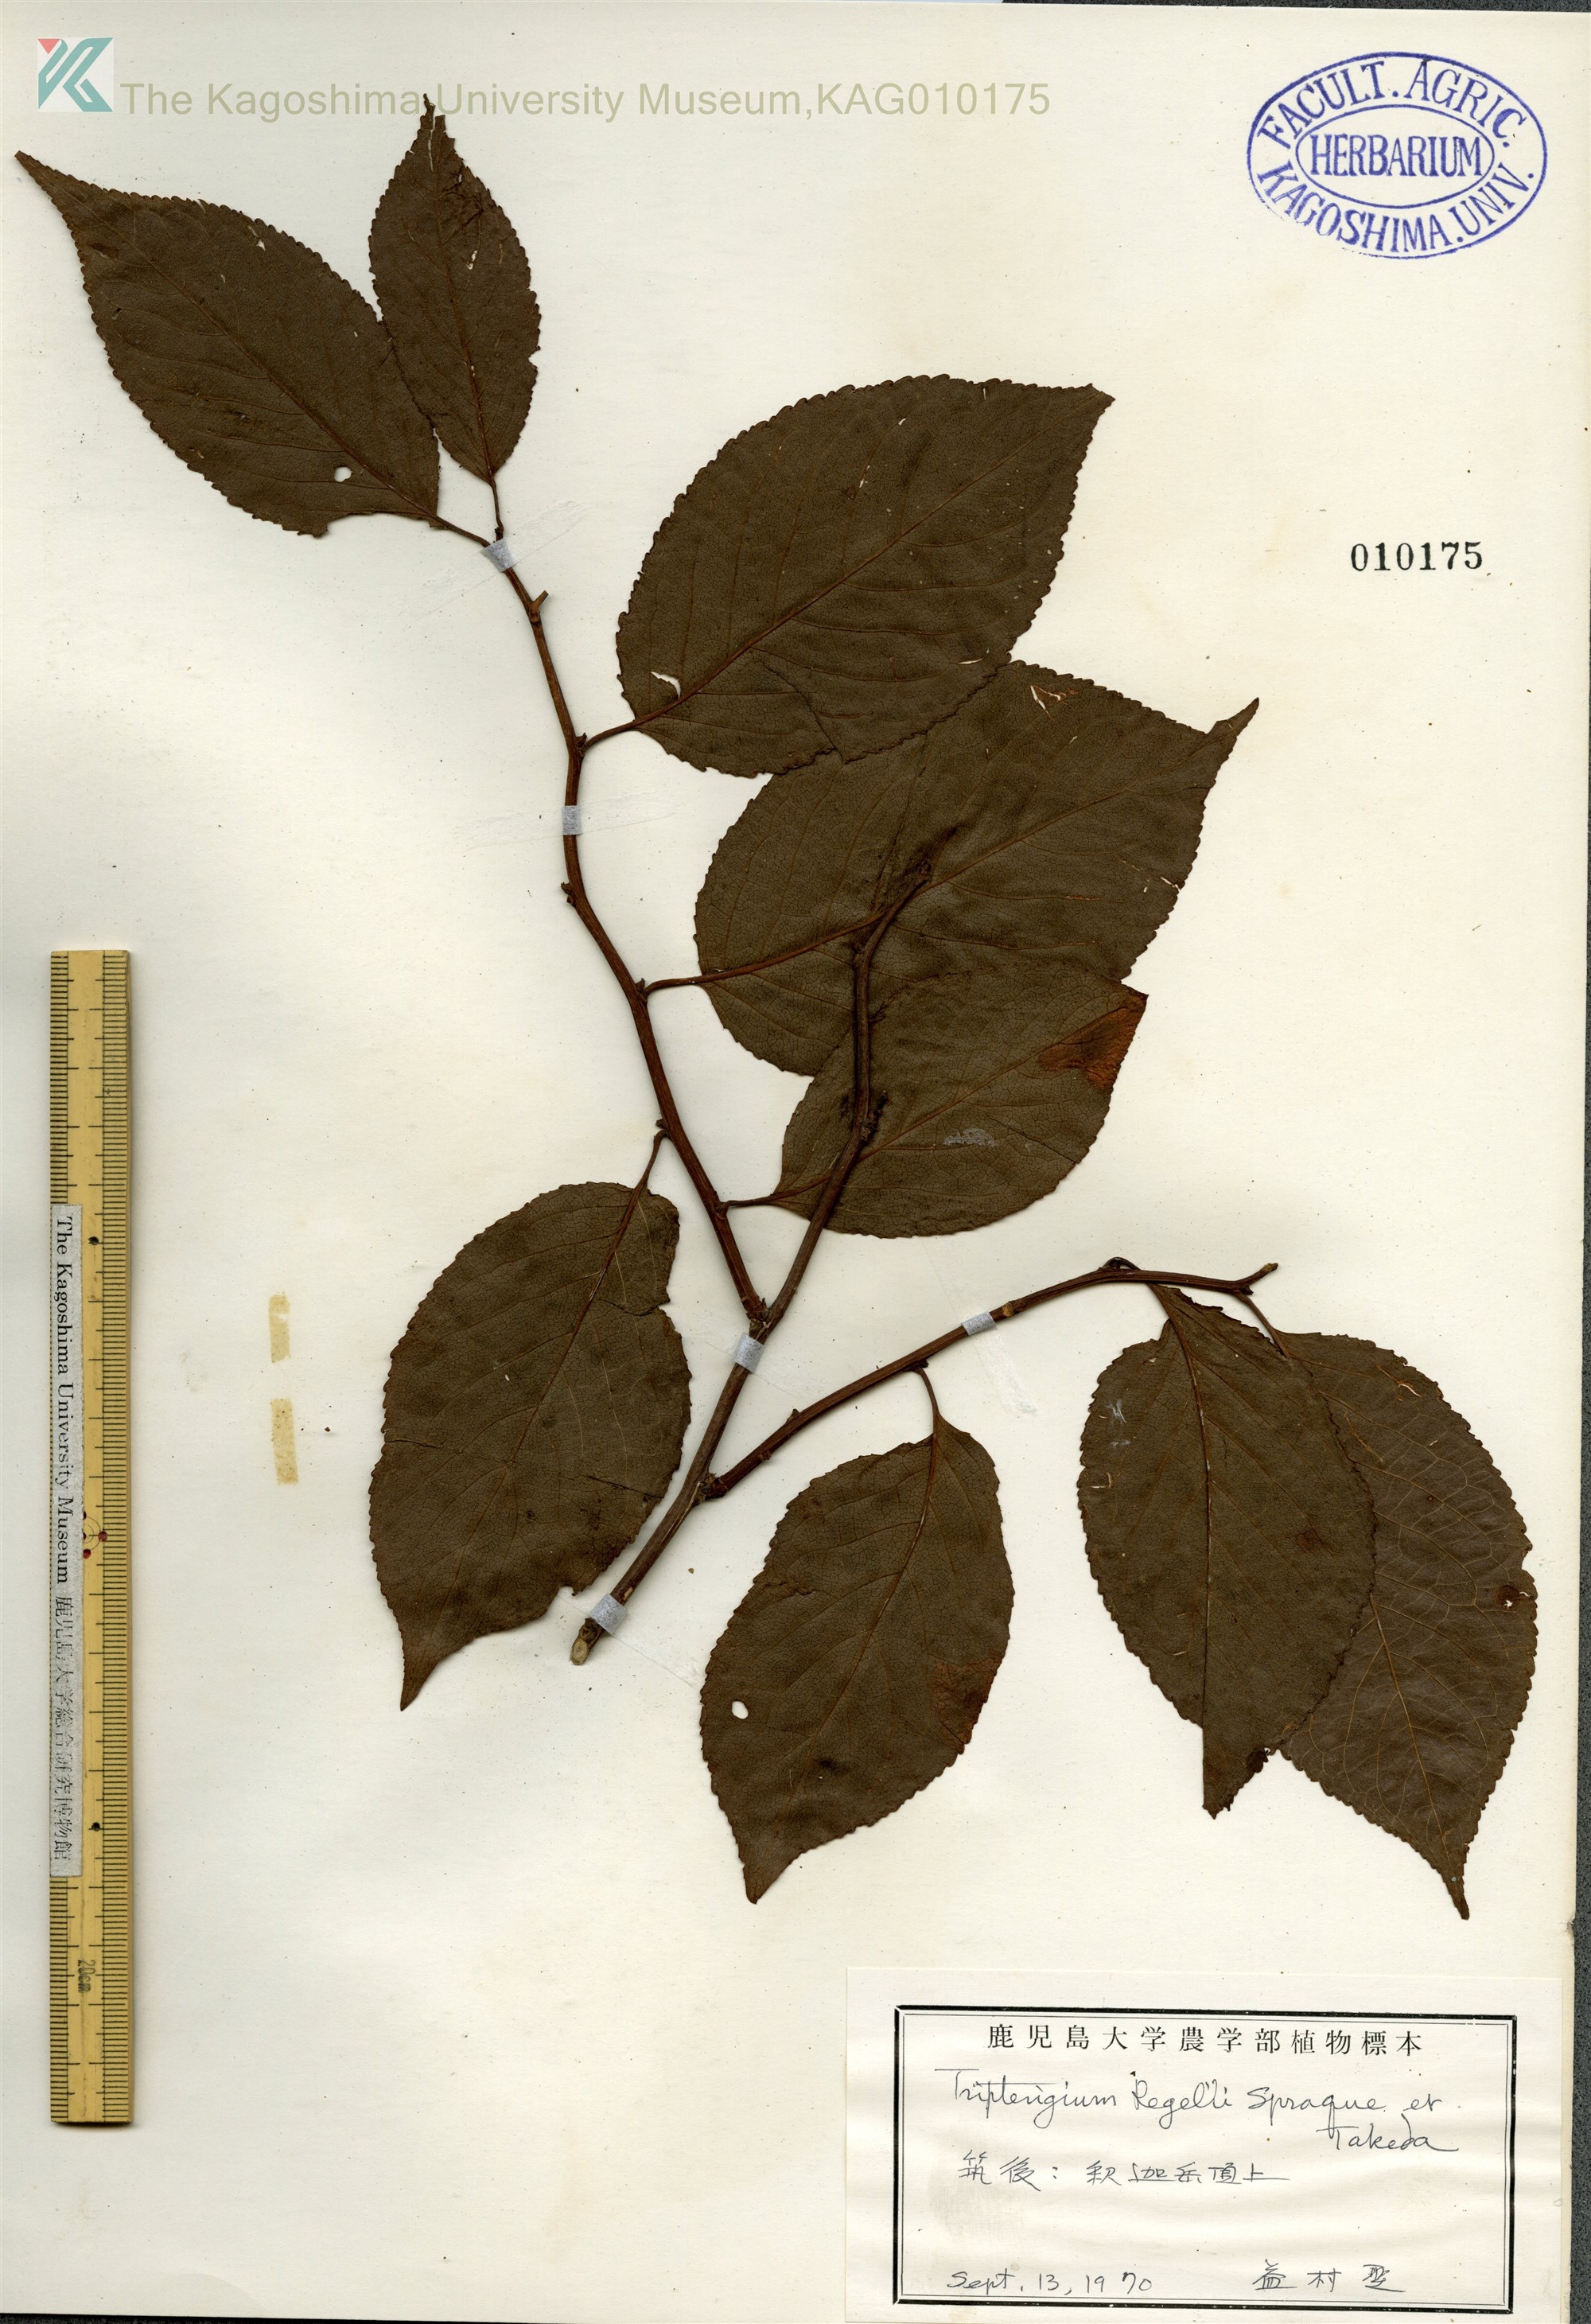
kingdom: Plantae
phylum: Tracheophyta
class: Magnoliopsida
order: Celastrales
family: Celastraceae
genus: Tripterygium
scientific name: Tripterygium wilfordii
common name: クロヅル
